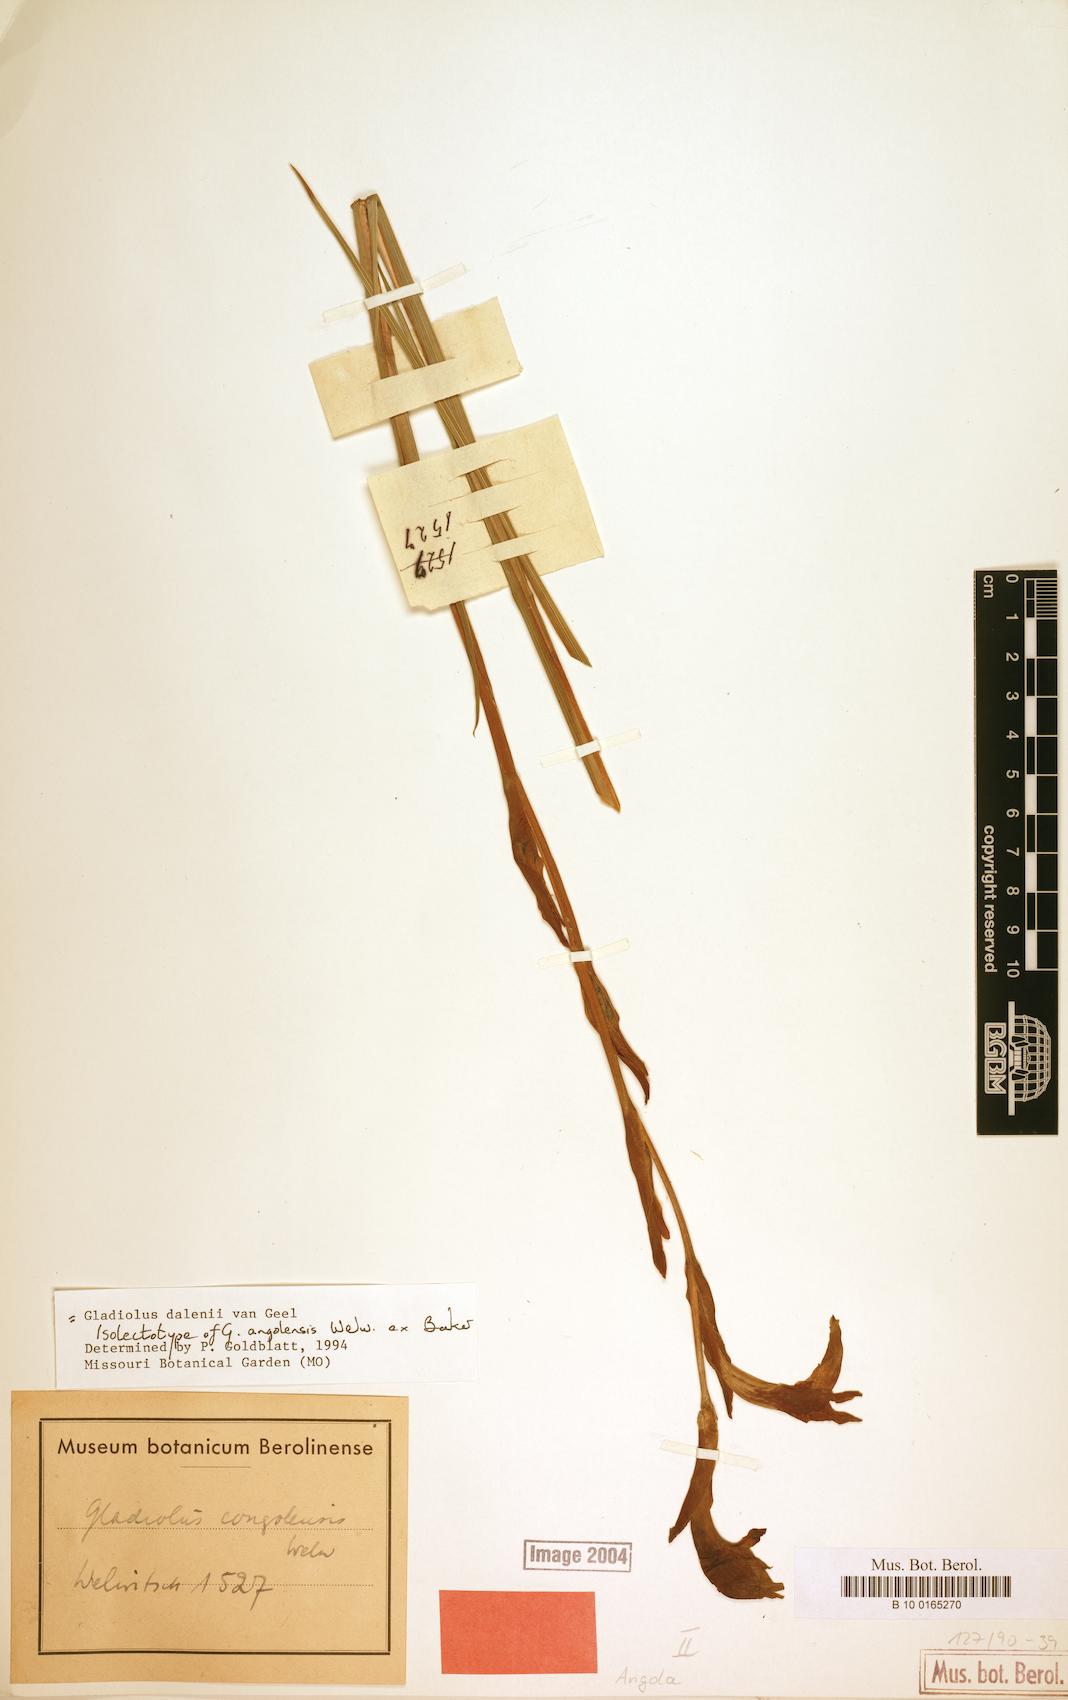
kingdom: Plantae
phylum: Tracheophyta
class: Liliopsida
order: Asparagales
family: Iridaceae
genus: Gladiolus
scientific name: Gladiolus dalenii
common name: Cornflag
